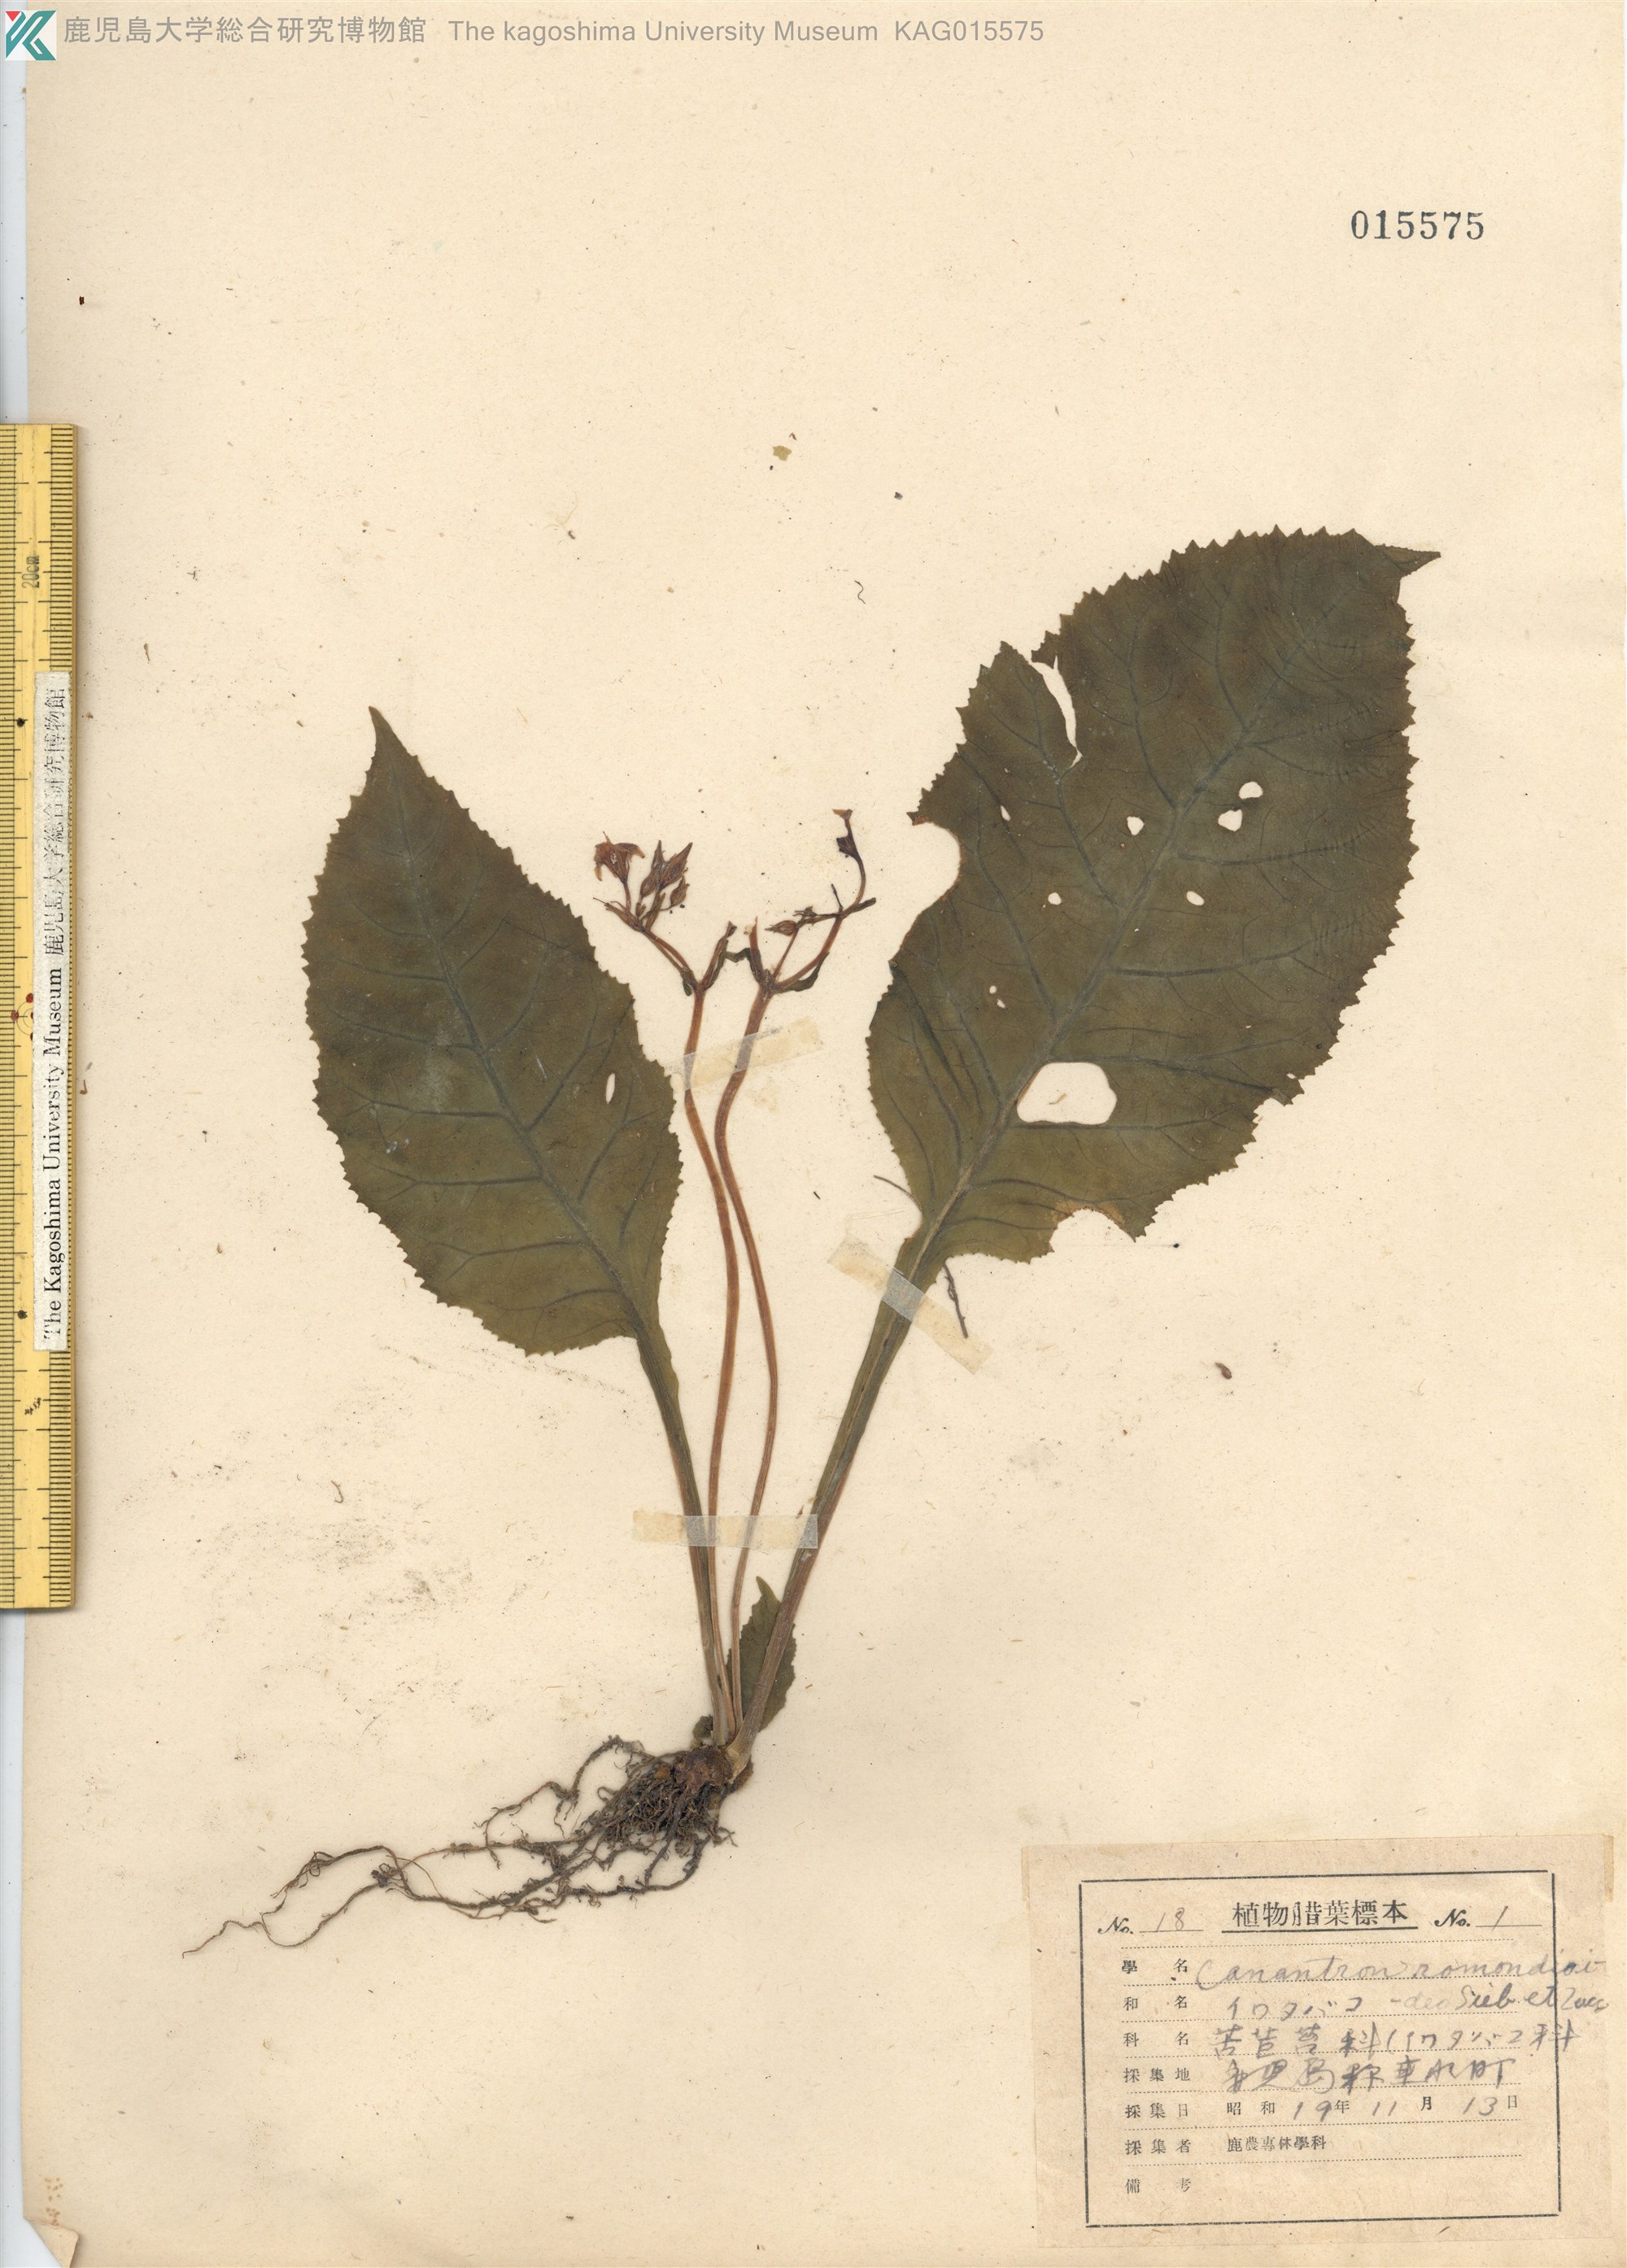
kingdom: Plantae
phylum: Tracheophyta
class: Magnoliopsida
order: Lamiales
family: Gesneriaceae
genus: Conandron
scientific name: Conandron ramondioides
